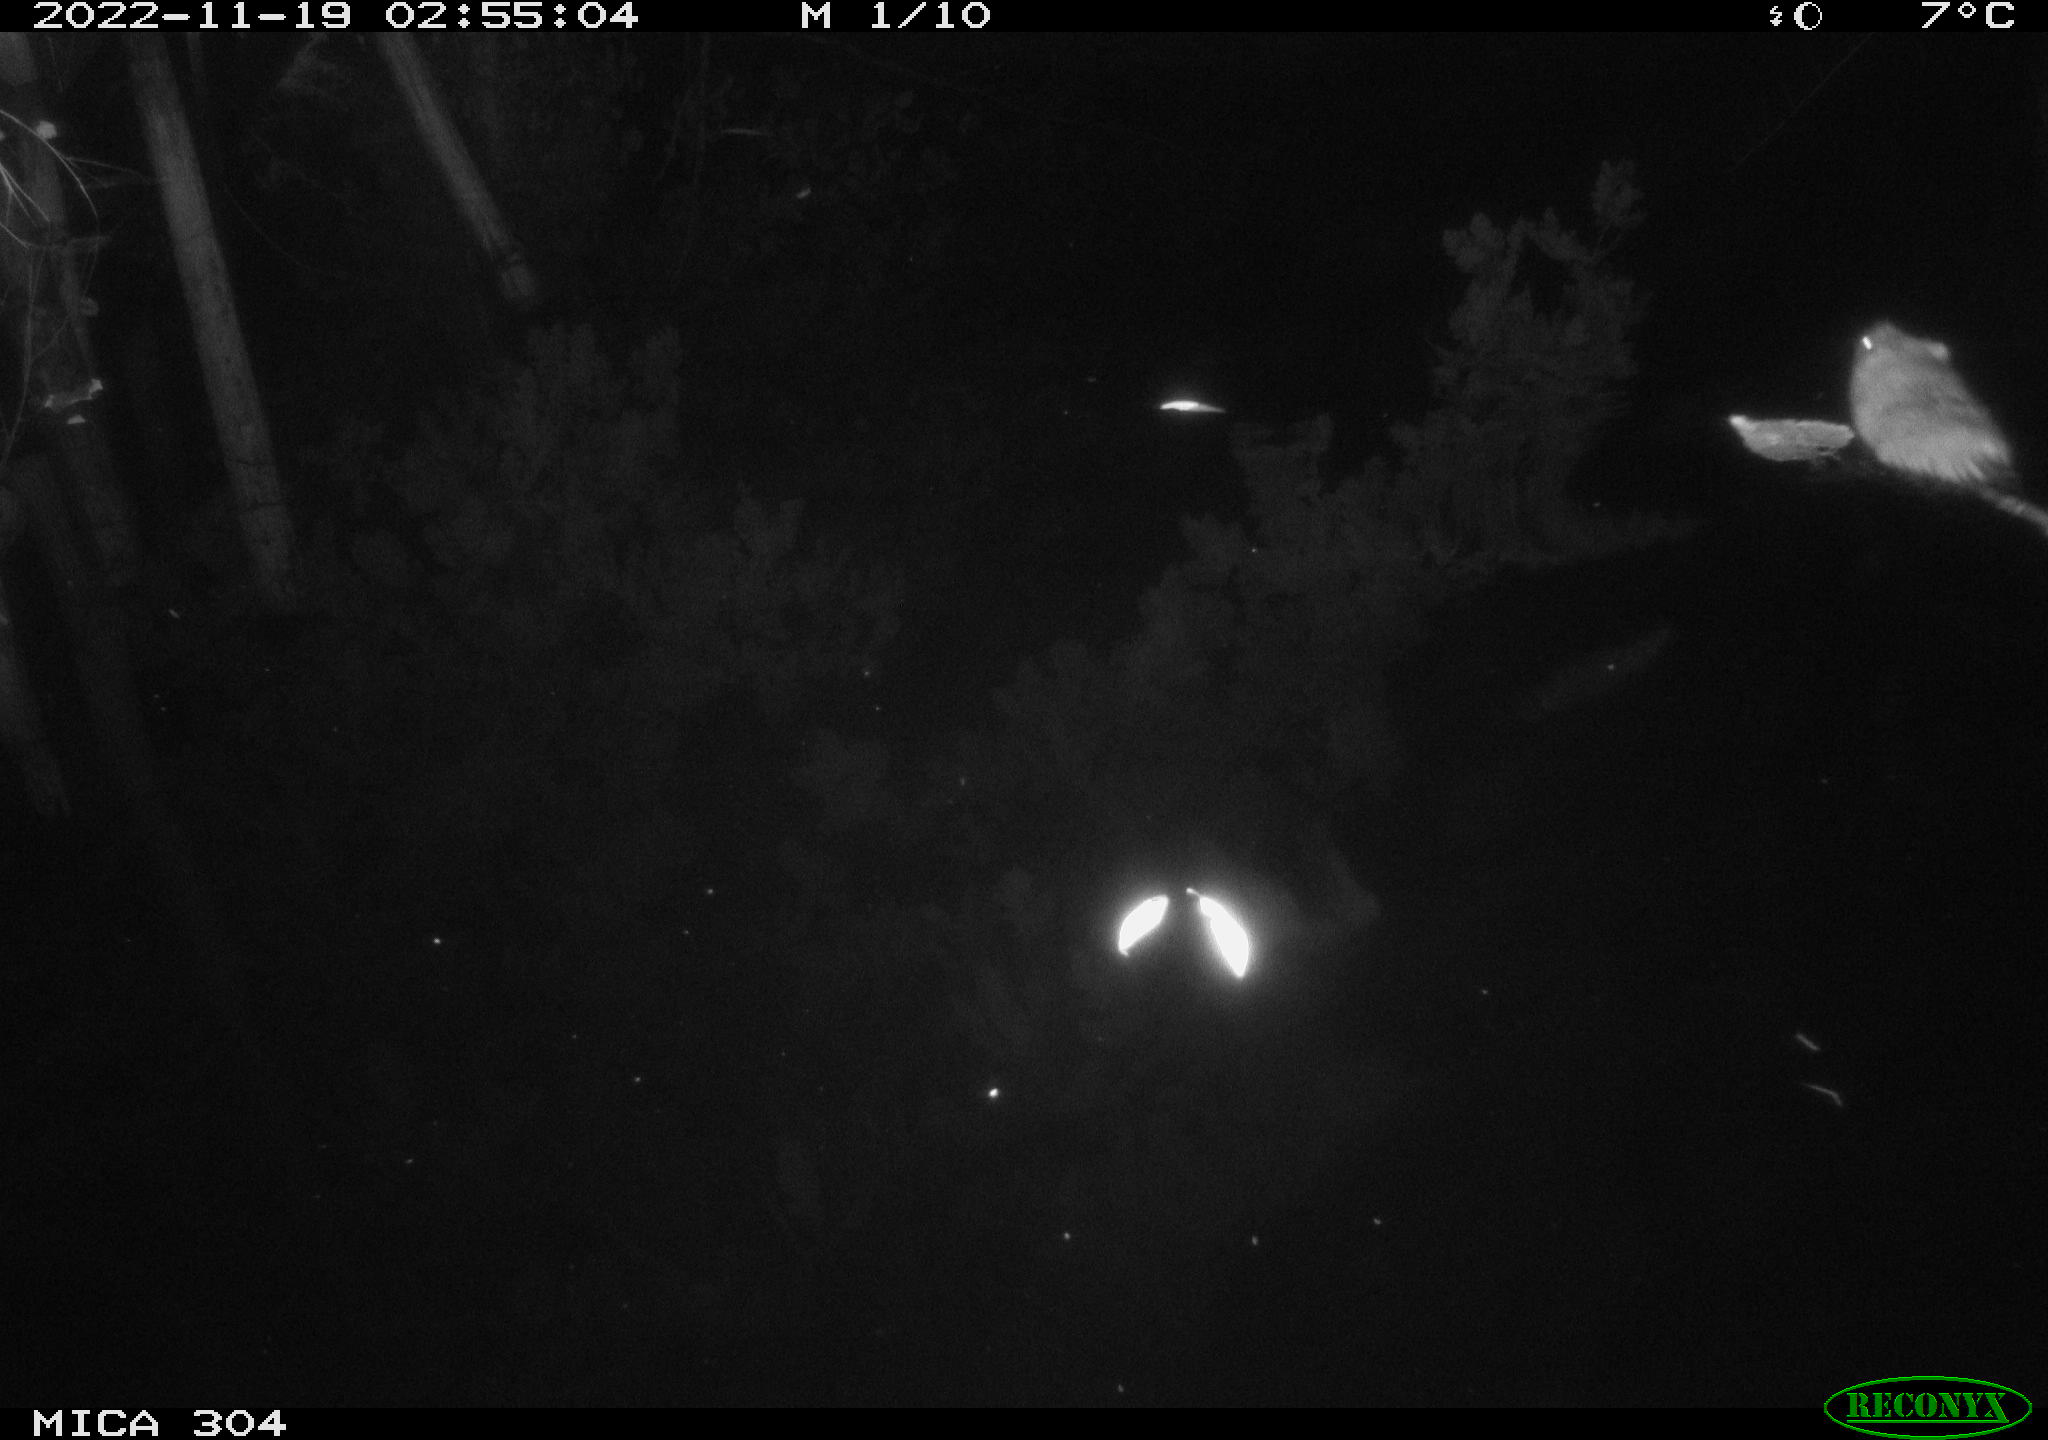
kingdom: Animalia
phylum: Chordata
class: Mammalia
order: Rodentia
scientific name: Rodentia
